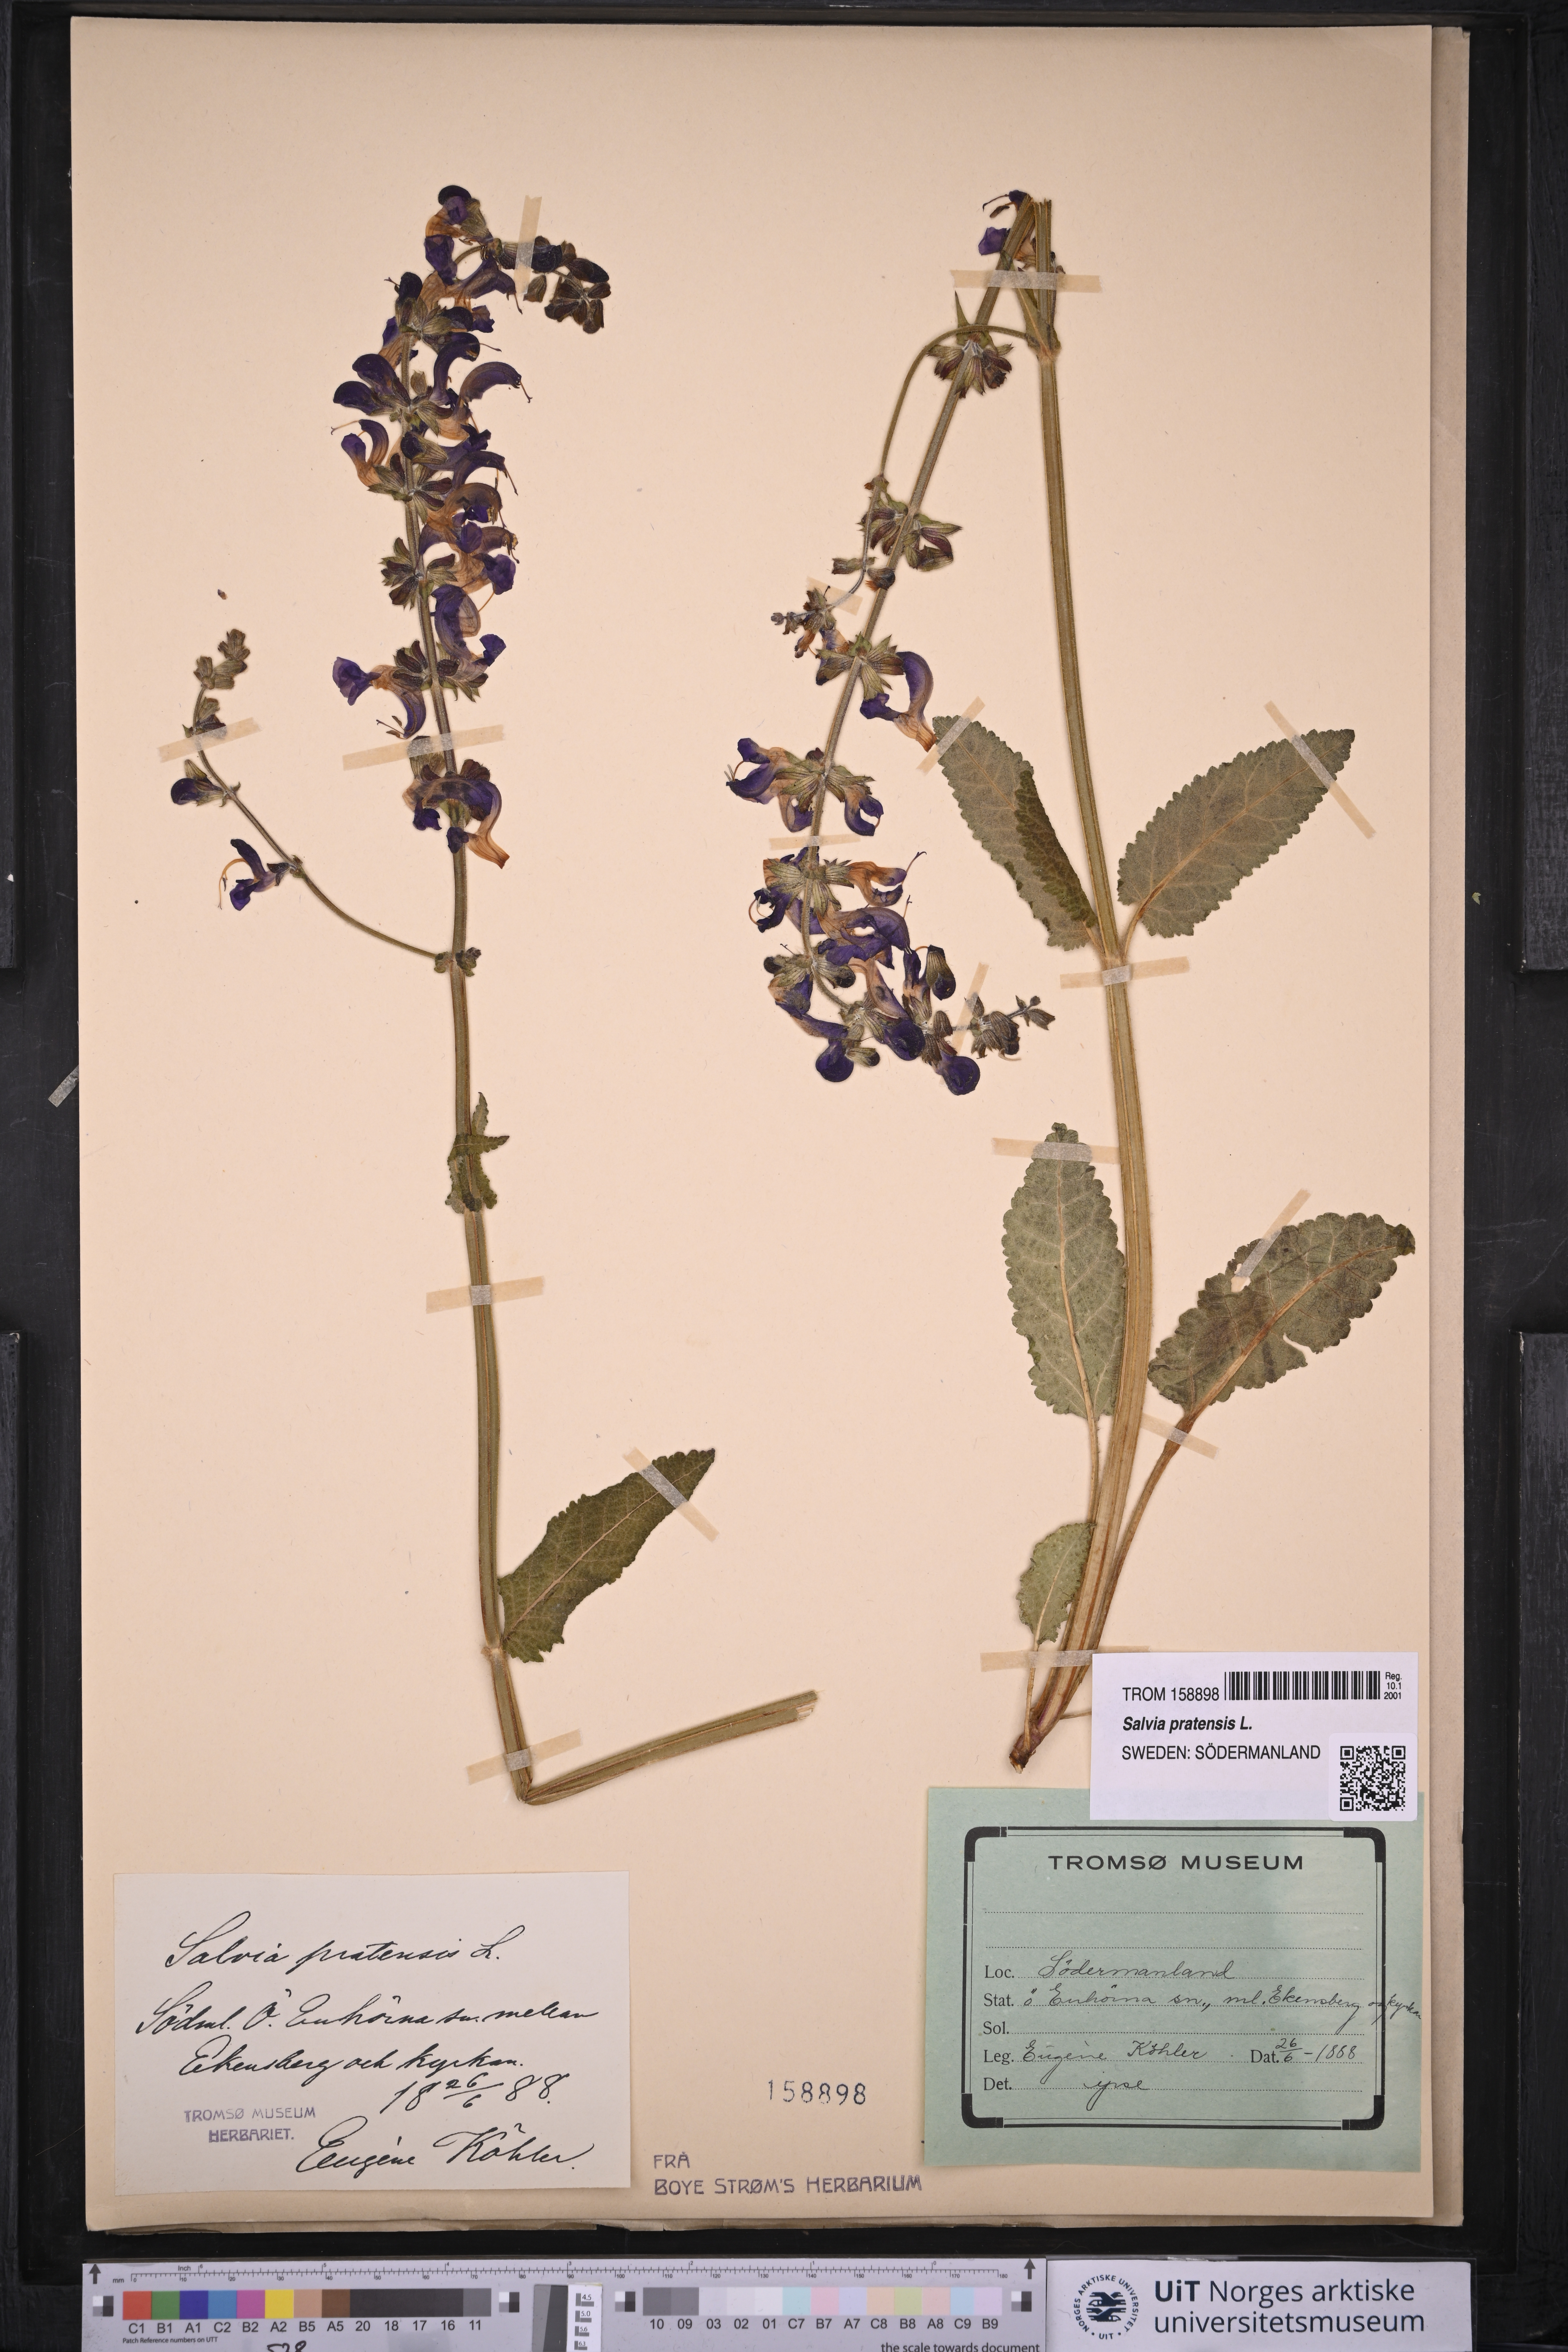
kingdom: Plantae
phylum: Tracheophyta
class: Magnoliopsida
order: Lamiales
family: Lamiaceae
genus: Salvia
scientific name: Salvia pratensis
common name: Meadow sage
